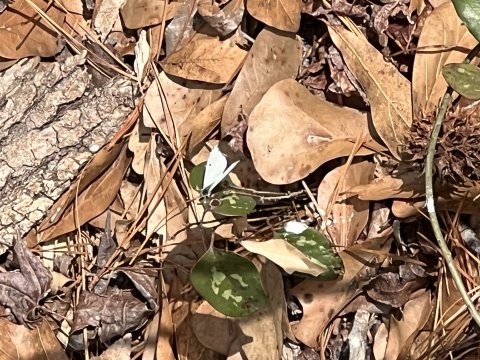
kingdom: Animalia
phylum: Arthropoda
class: Insecta
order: Lepidoptera
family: Pieridae
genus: Anthocharis
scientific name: Anthocharis midea
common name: Falcate Orangetip
